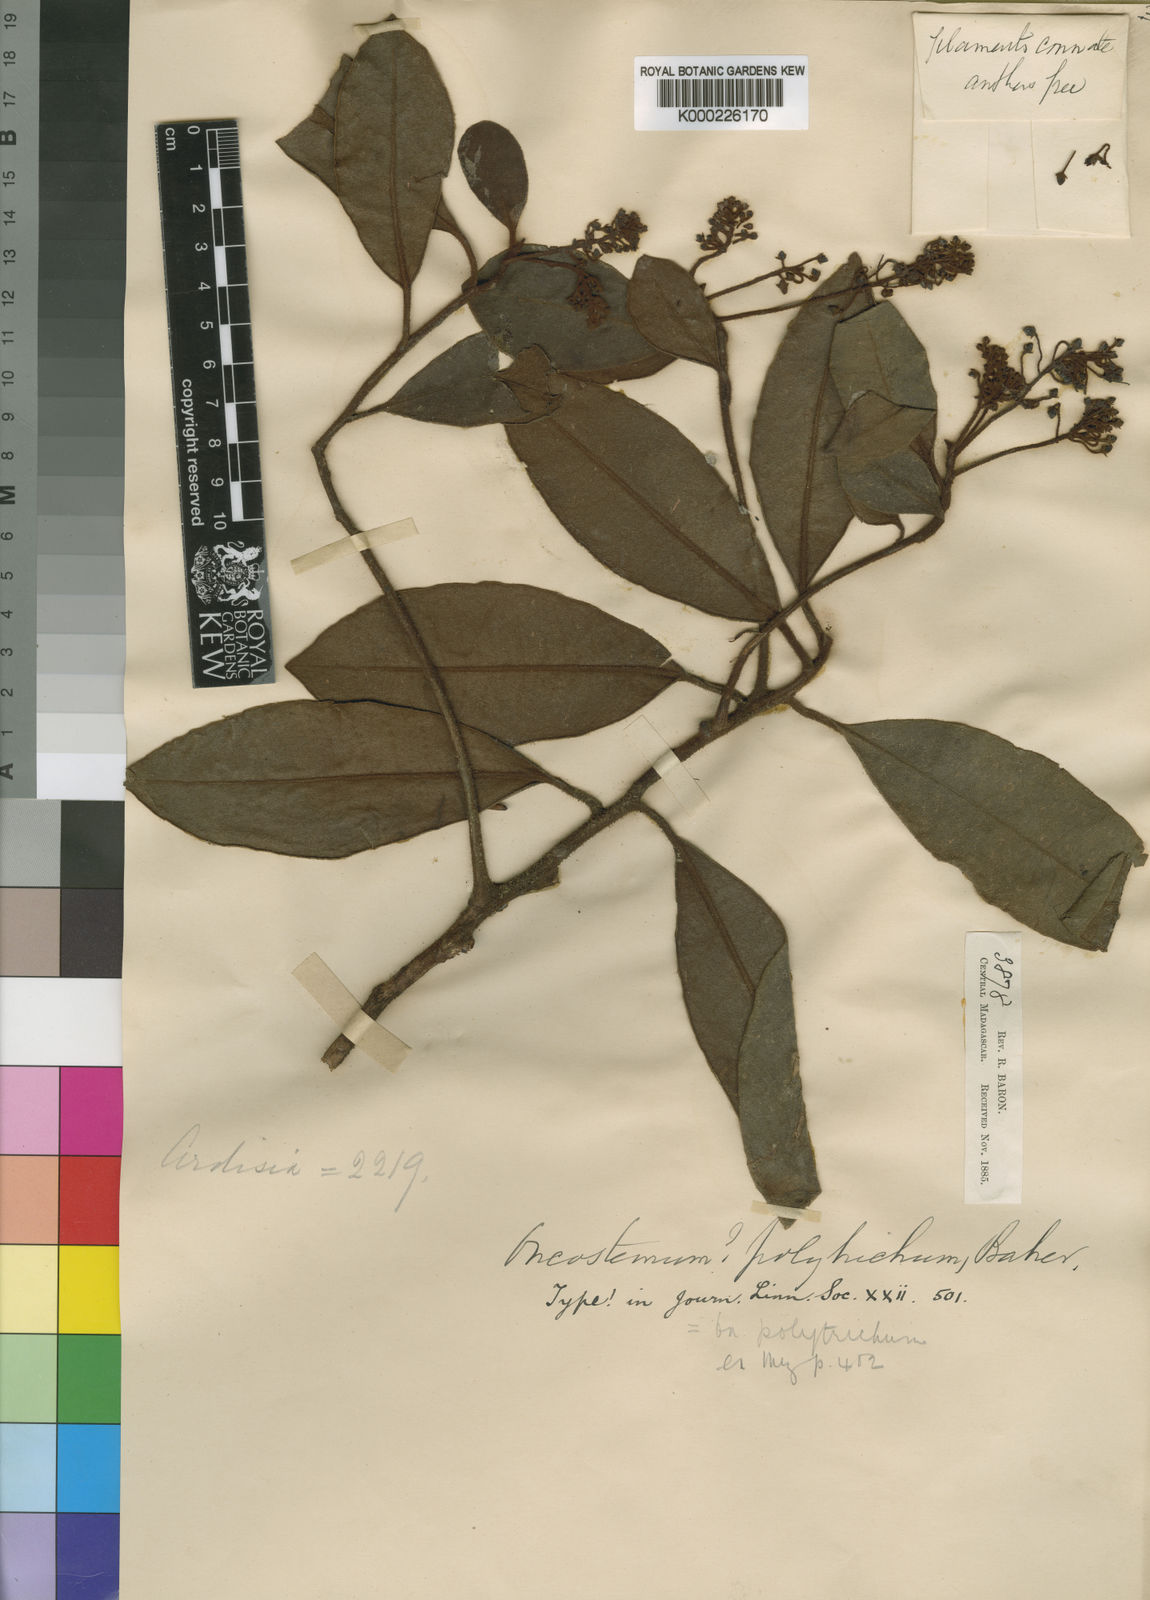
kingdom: Plantae
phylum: Tracheophyta
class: Magnoliopsida
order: Ericales
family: Primulaceae
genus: Oncostemum
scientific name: Oncostemum polytrichum
